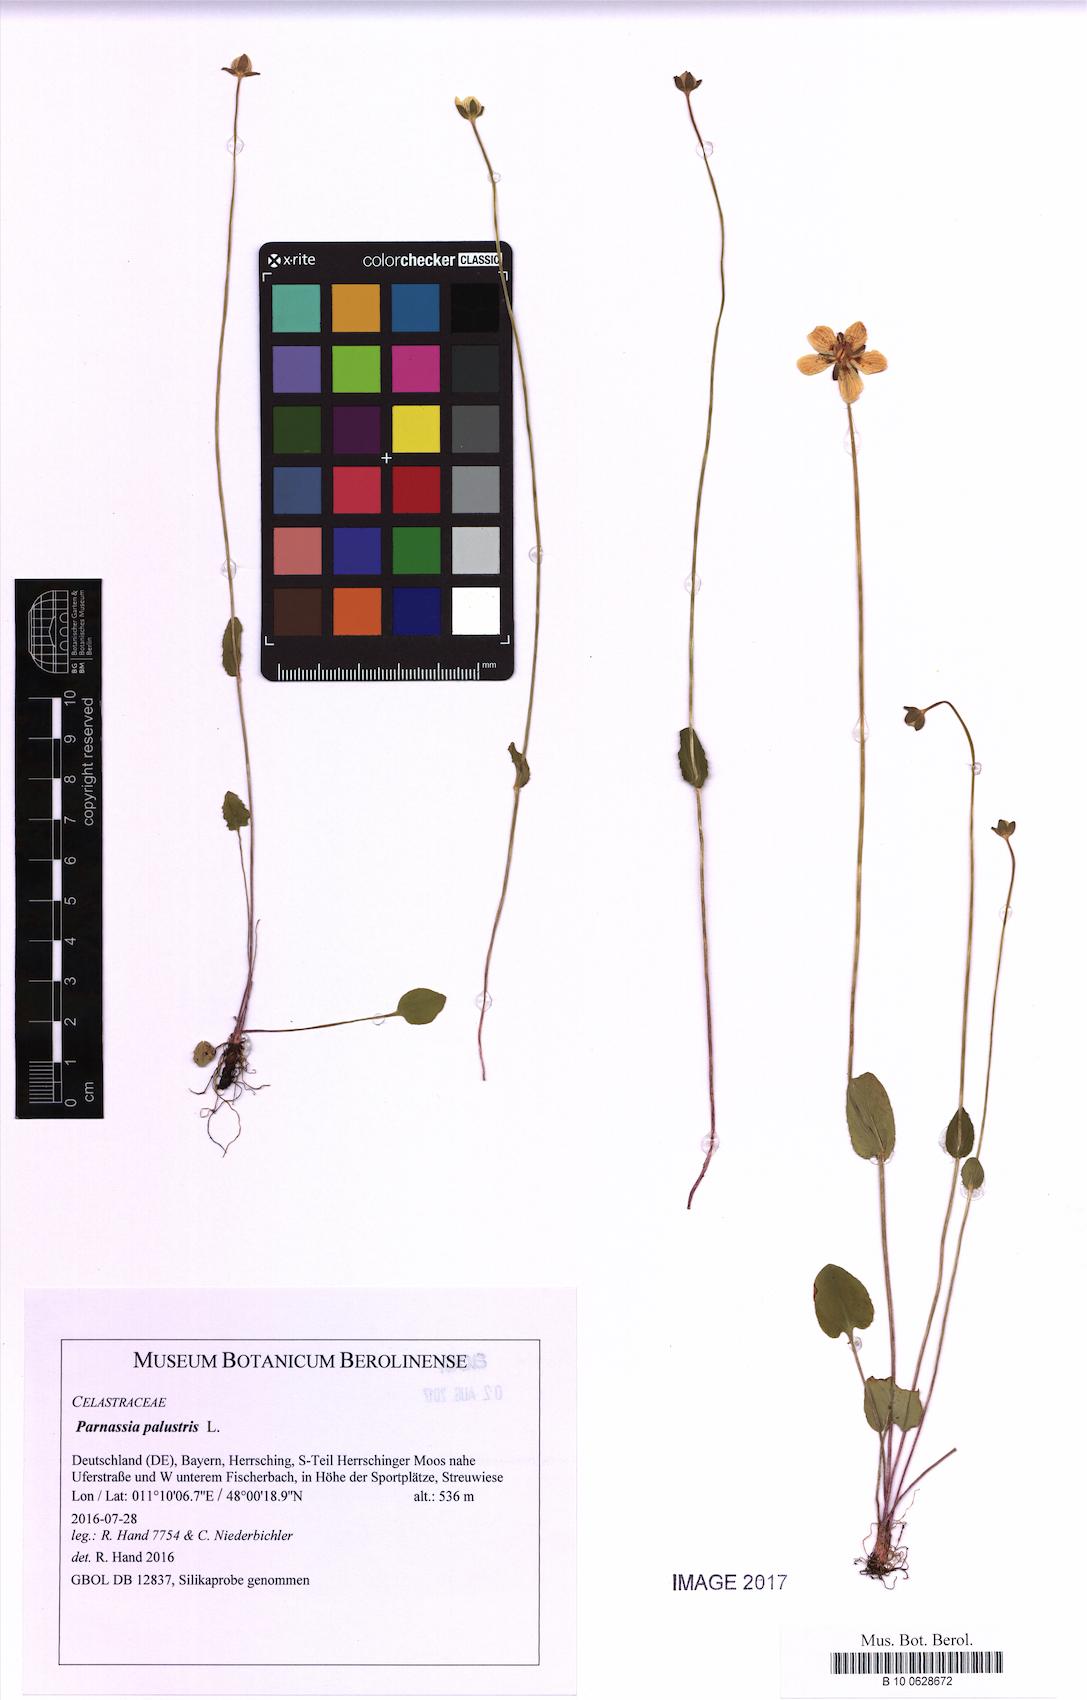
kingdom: Plantae
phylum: Tracheophyta
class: Magnoliopsida
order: Celastrales
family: Parnassiaceae
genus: Parnassia
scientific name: Parnassia palustris
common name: Grass-of-parnassus
